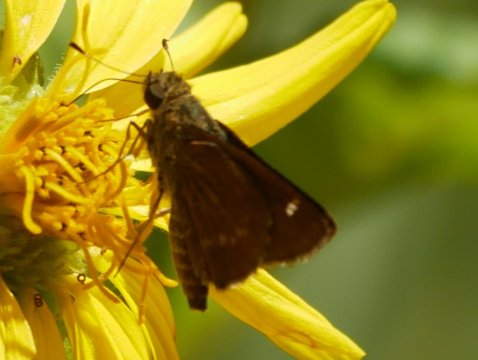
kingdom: Animalia
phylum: Arthropoda
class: Insecta
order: Lepidoptera
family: Hesperiidae
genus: Vernia
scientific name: Vernia verna
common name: Little Glassywing
